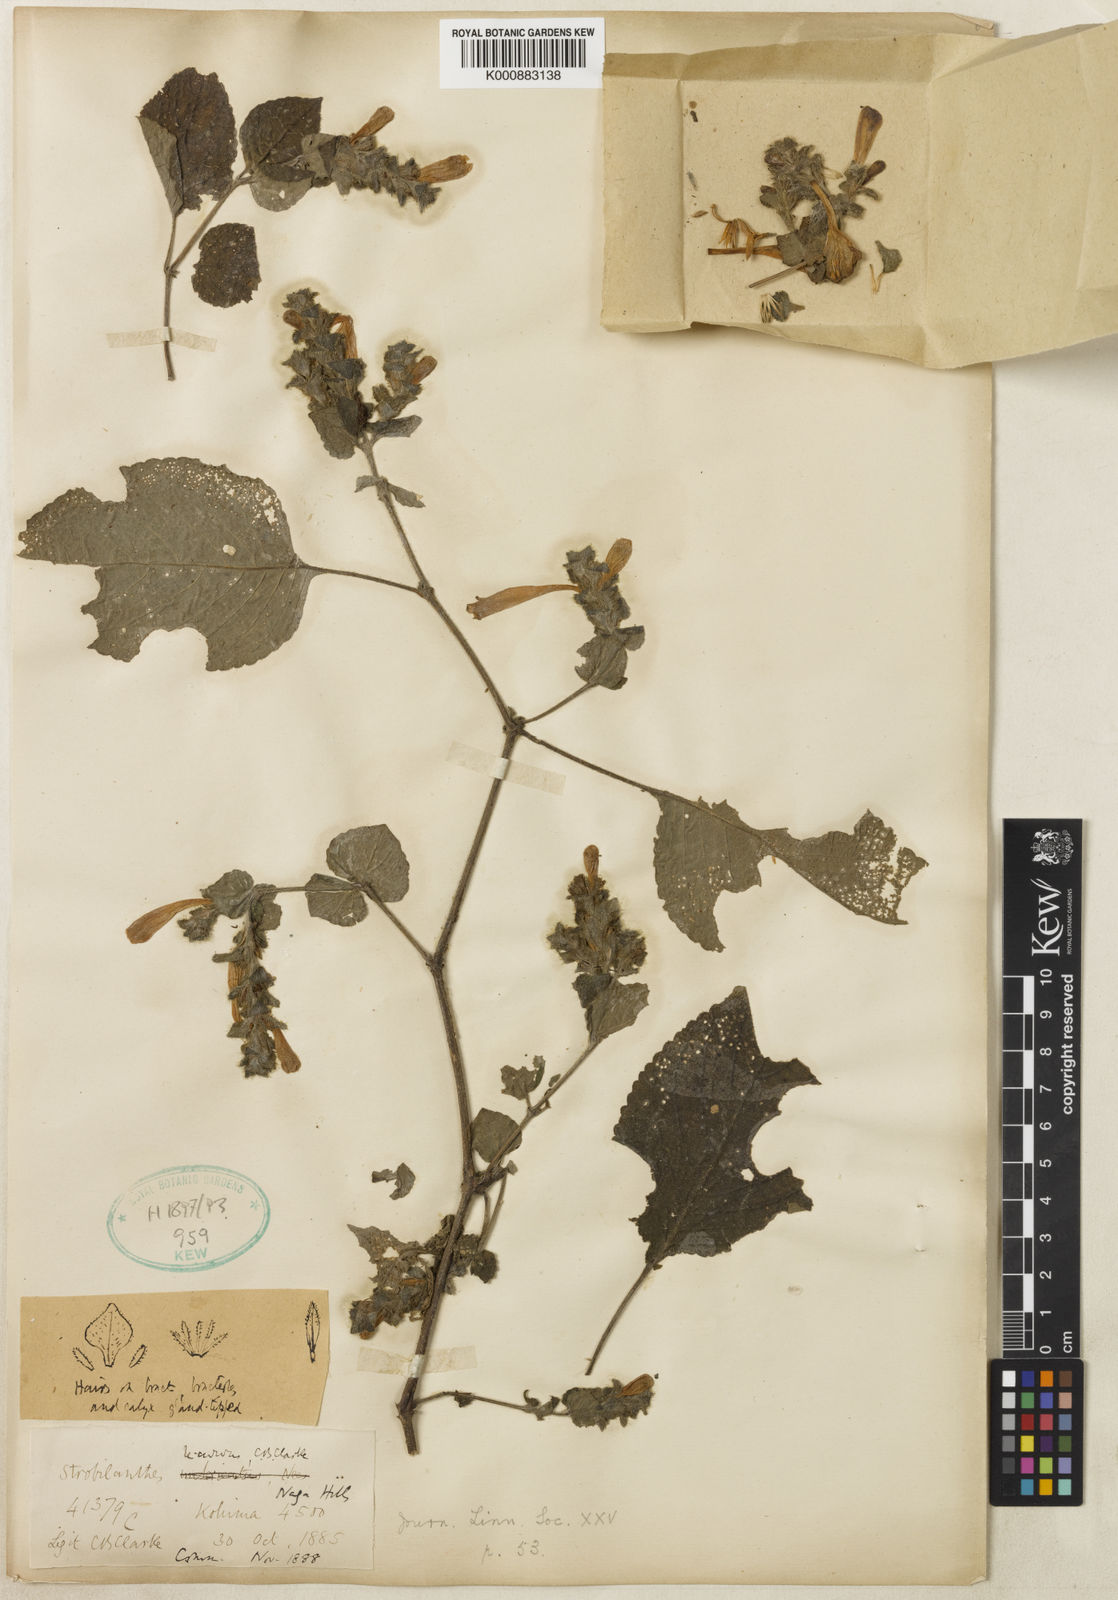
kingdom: Plantae
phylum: Tracheophyta
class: Magnoliopsida
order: Lamiales
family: Acanthaceae
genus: Strobilanthes
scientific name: Strobilanthes recurva
